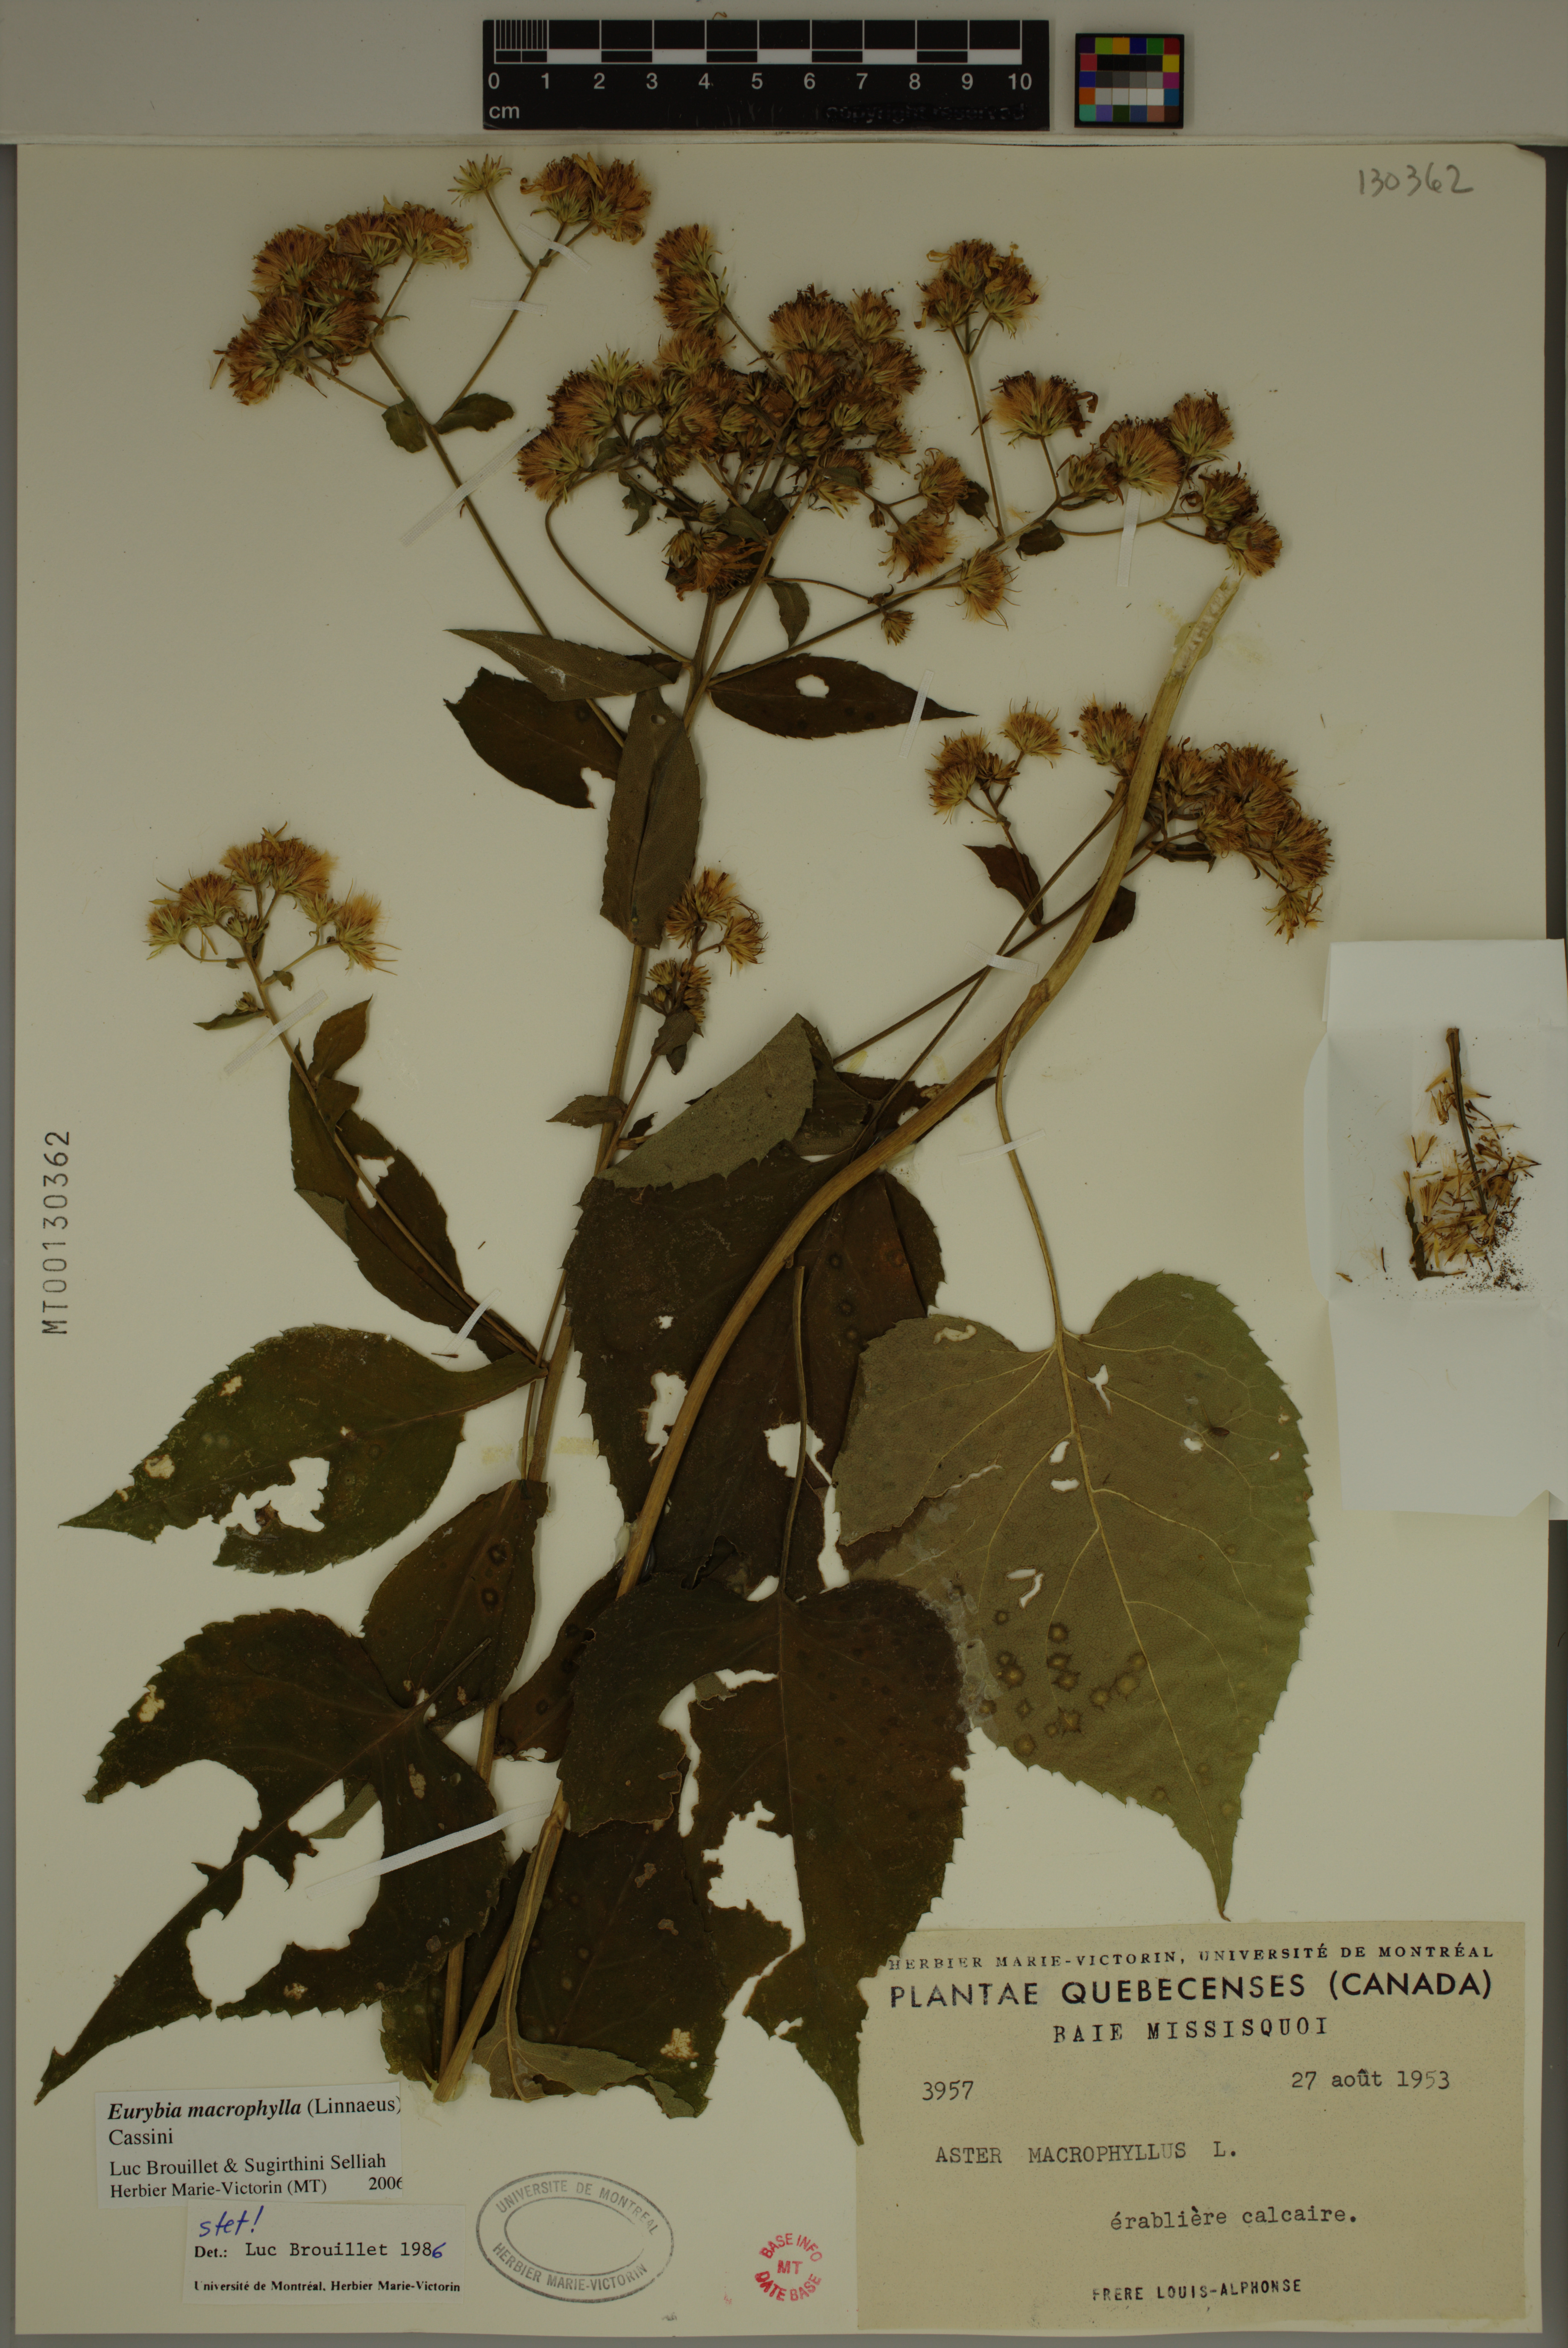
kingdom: Plantae
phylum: Tracheophyta
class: Magnoliopsida
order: Asterales
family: Asteraceae
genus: Eurybia
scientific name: Eurybia macrophylla
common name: Big-leaved aster
